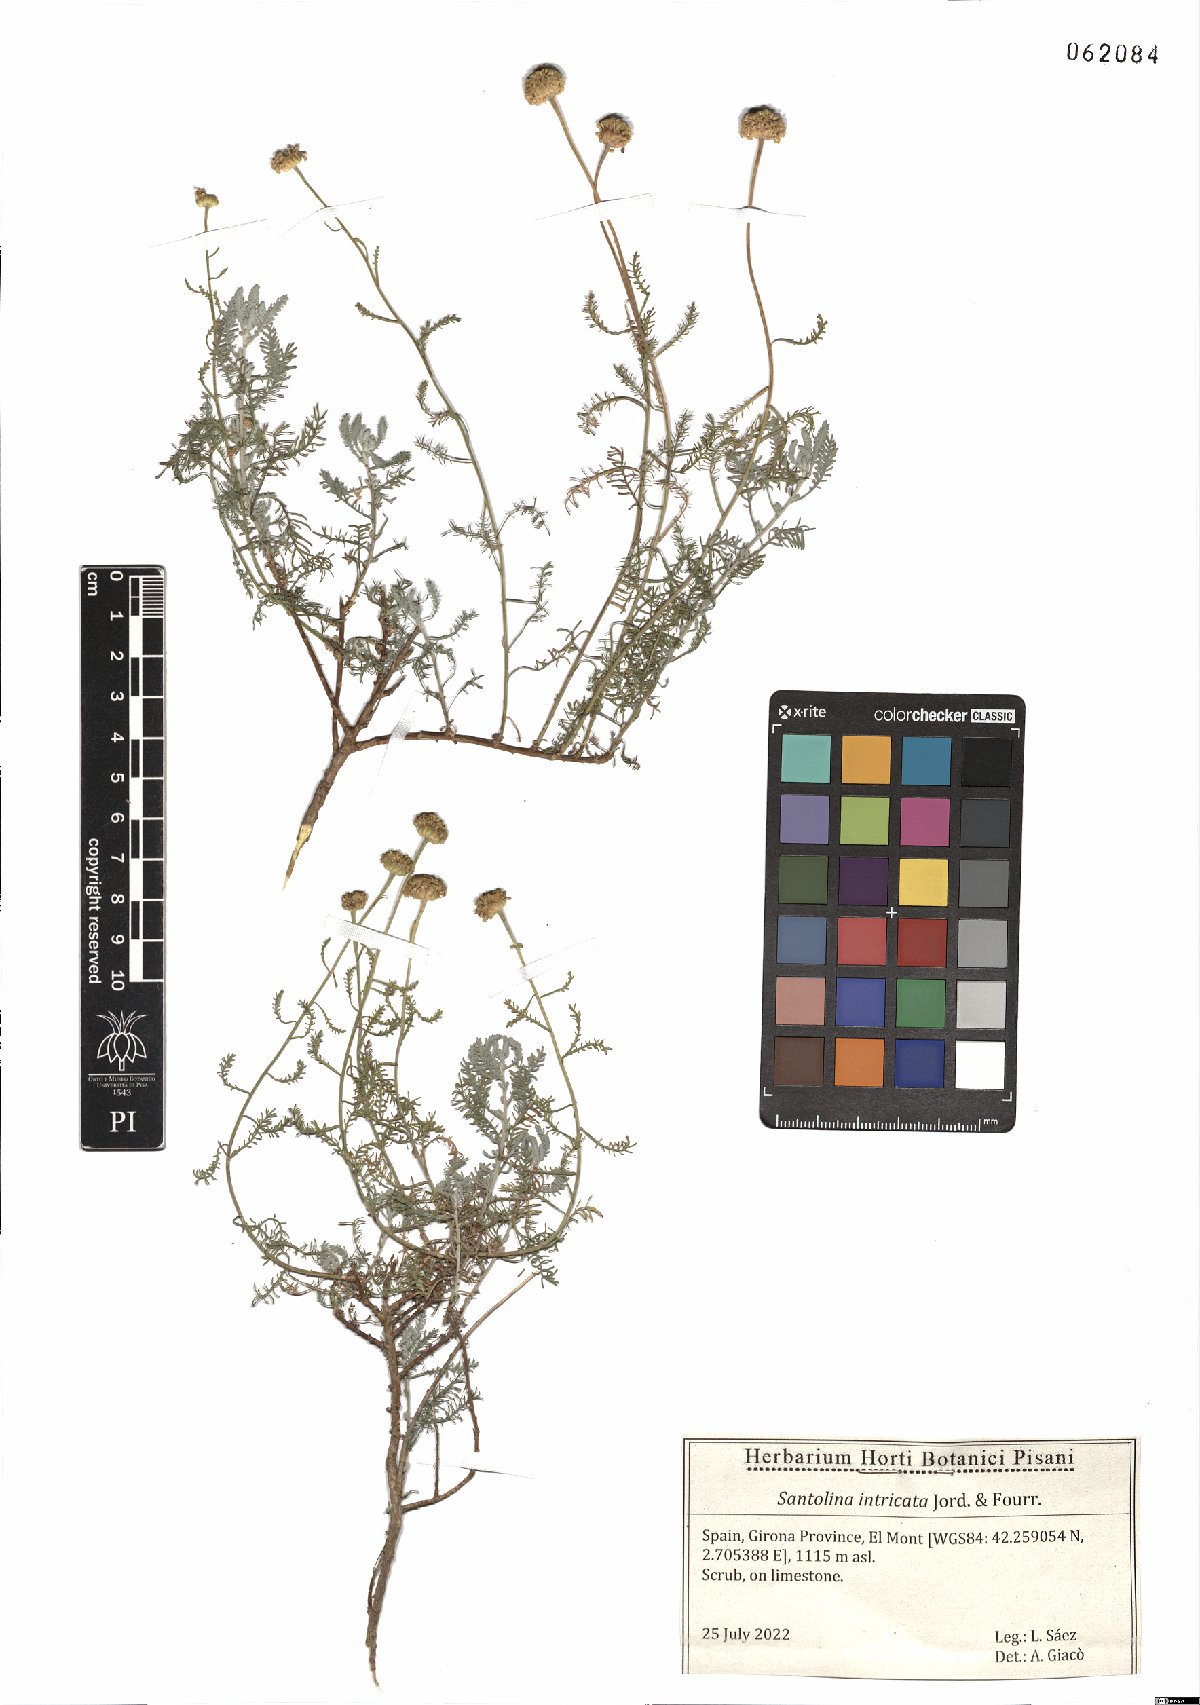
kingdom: Plantae
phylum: Tracheophyta
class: Magnoliopsida
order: Asterales
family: Asteraceae
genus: Santolina
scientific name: Santolina benthamiana
